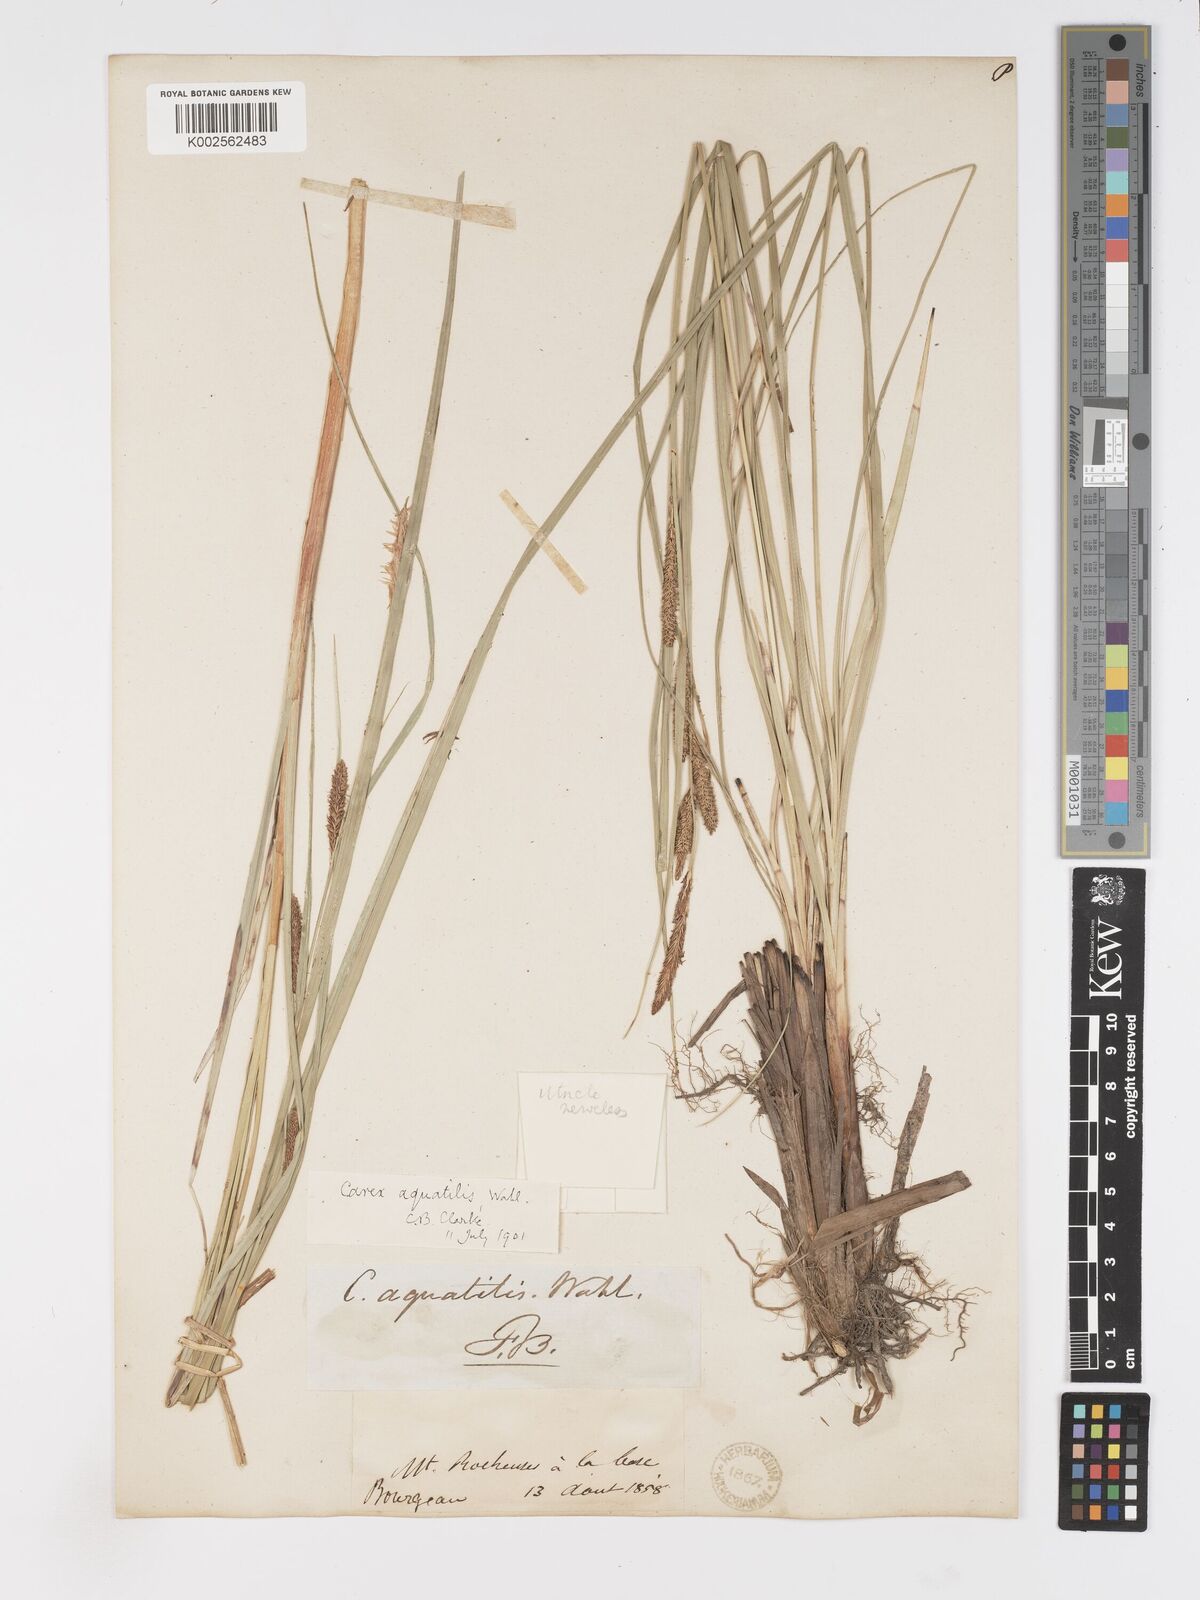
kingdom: Plantae
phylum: Tracheophyta
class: Liliopsida
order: Poales
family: Cyperaceae
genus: Carex
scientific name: Carex
